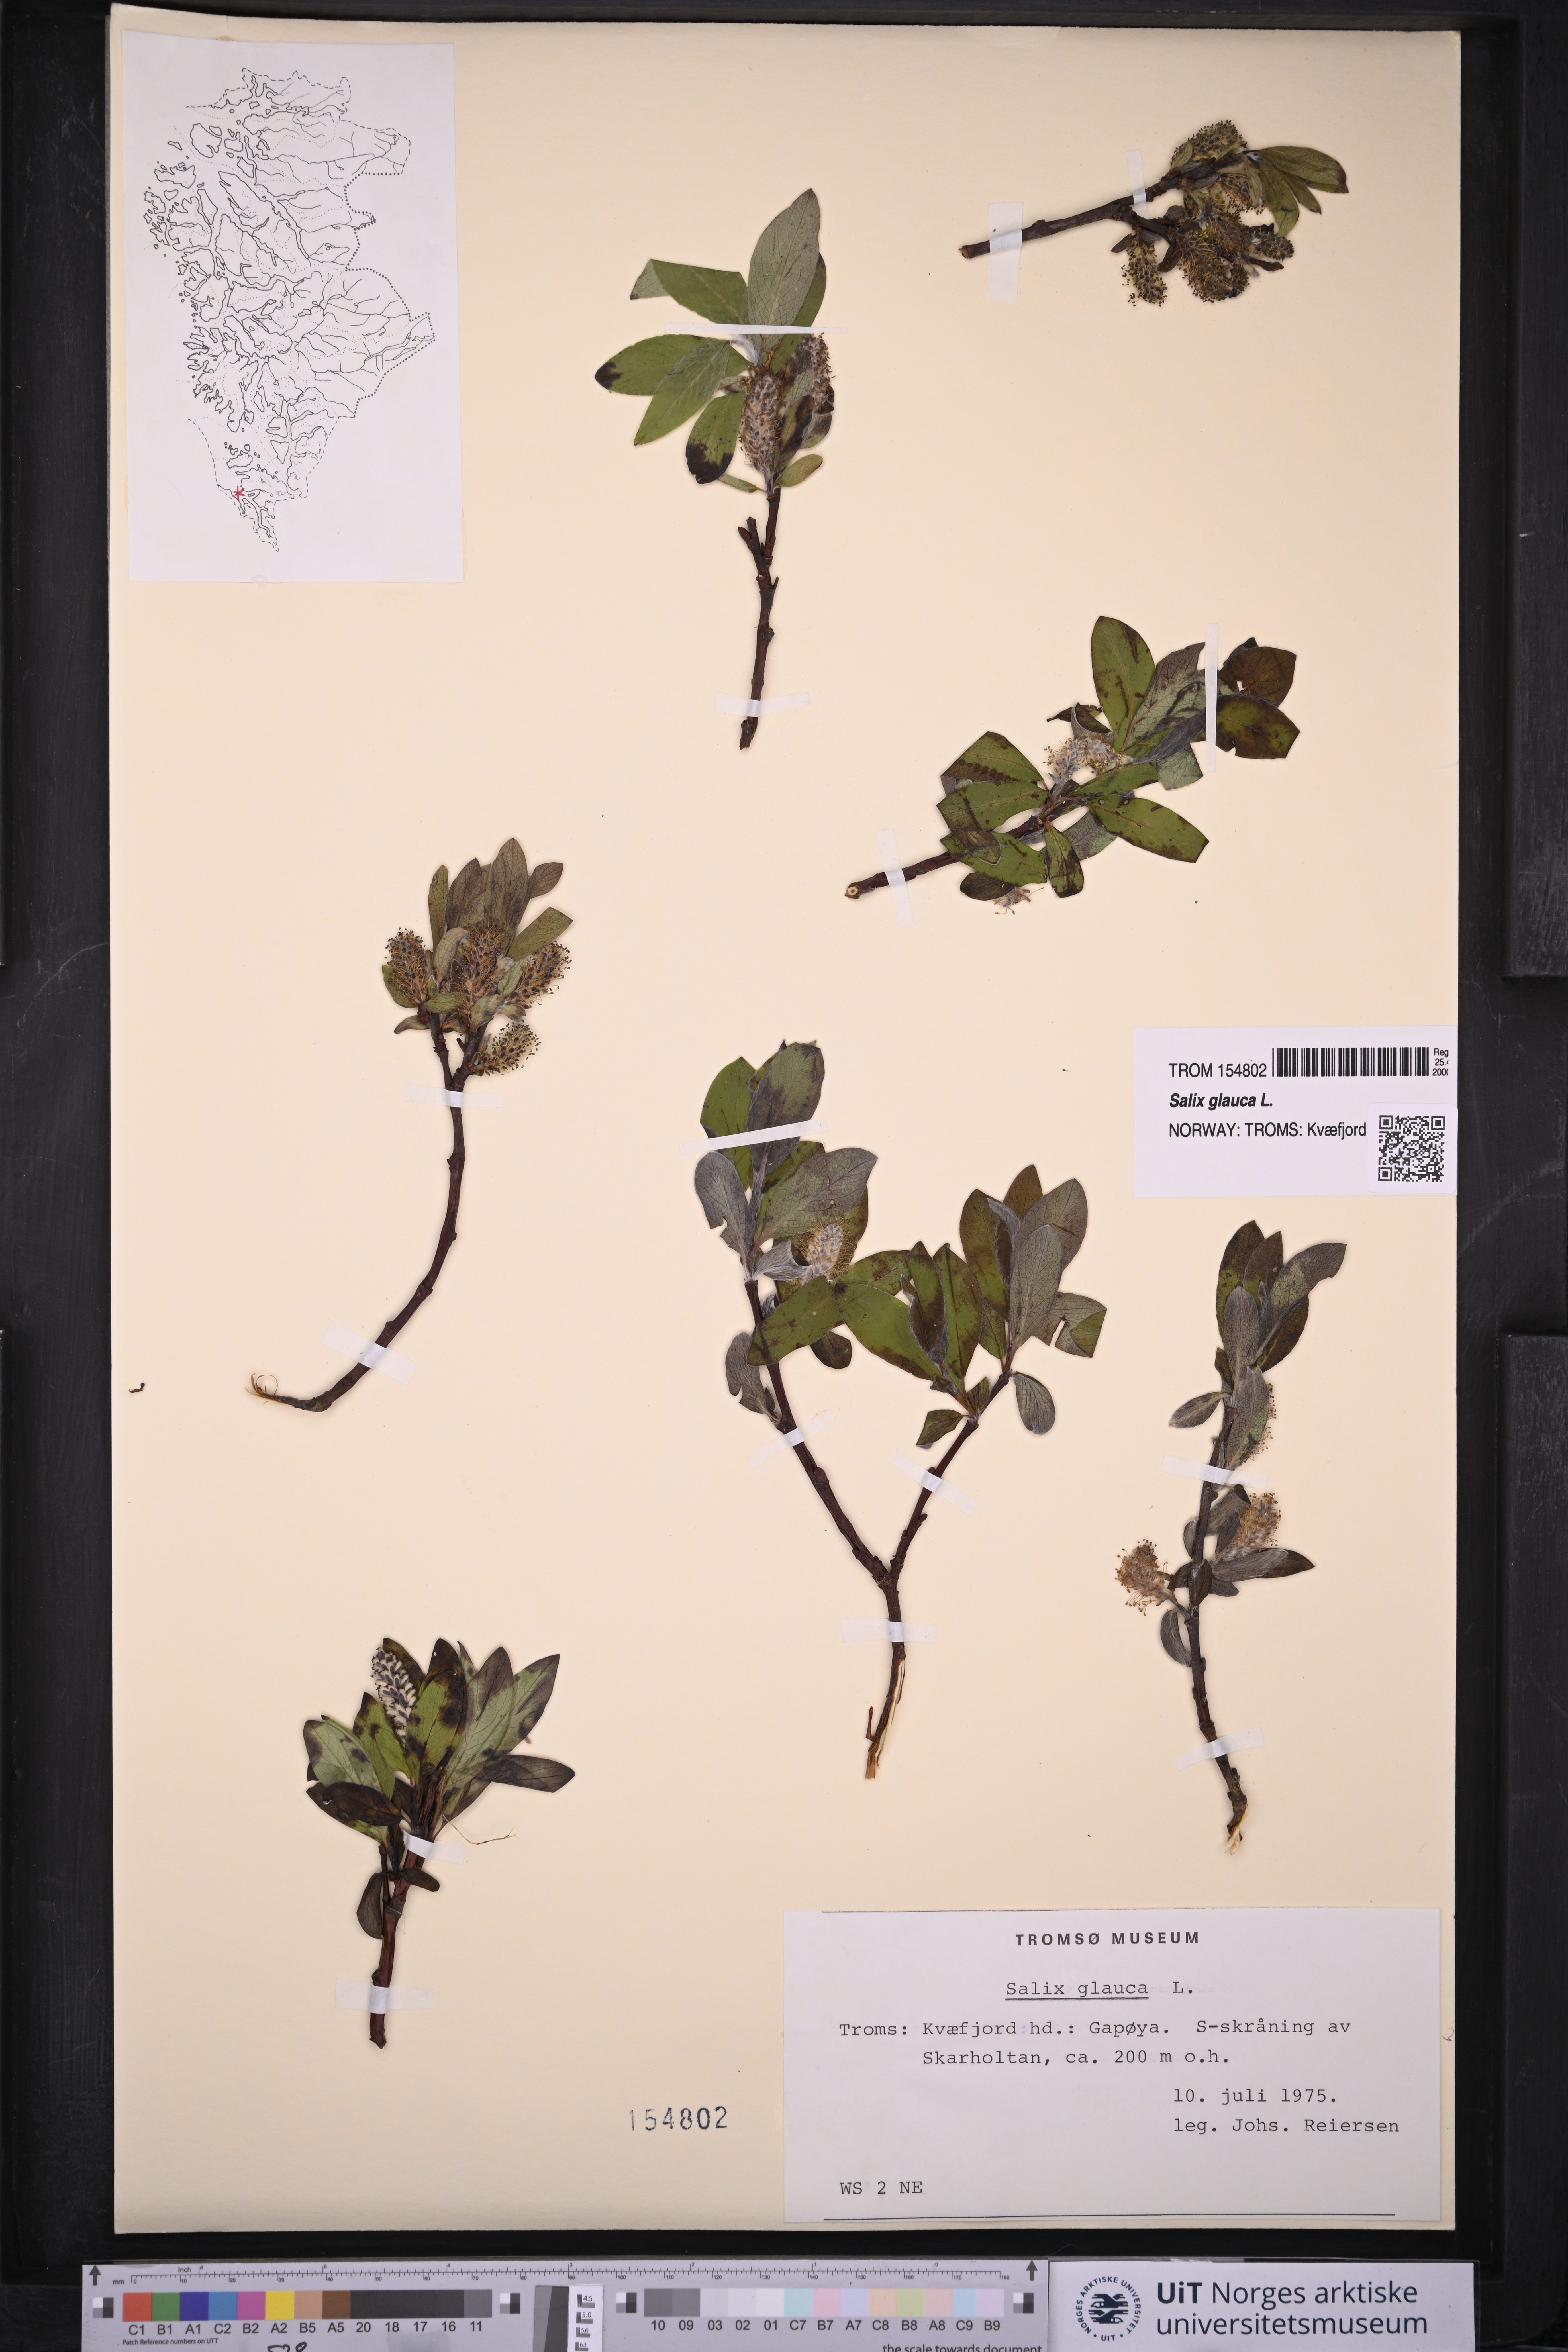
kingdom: Plantae
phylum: Tracheophyta
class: Magnoliopsida
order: Malpighiales
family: Salicaceae
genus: Salix
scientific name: Salix glauca
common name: Glaucous willow
